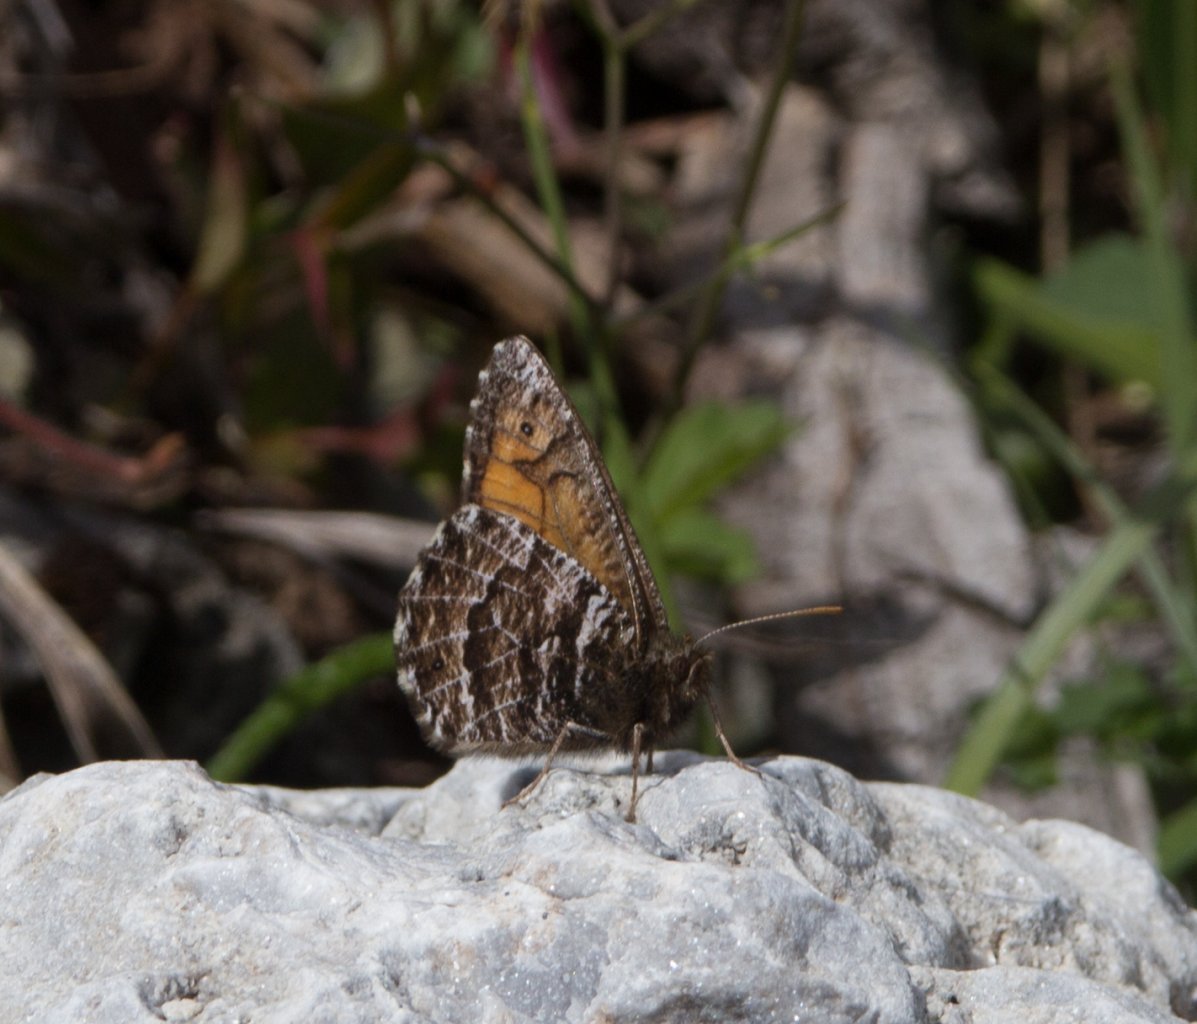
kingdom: Animalia
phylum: Arthropoda
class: Insecta
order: Lepidoptera
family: Nymphalidae
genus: Oeneis
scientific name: Oeneis chryxus
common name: Chryxus Arctic
